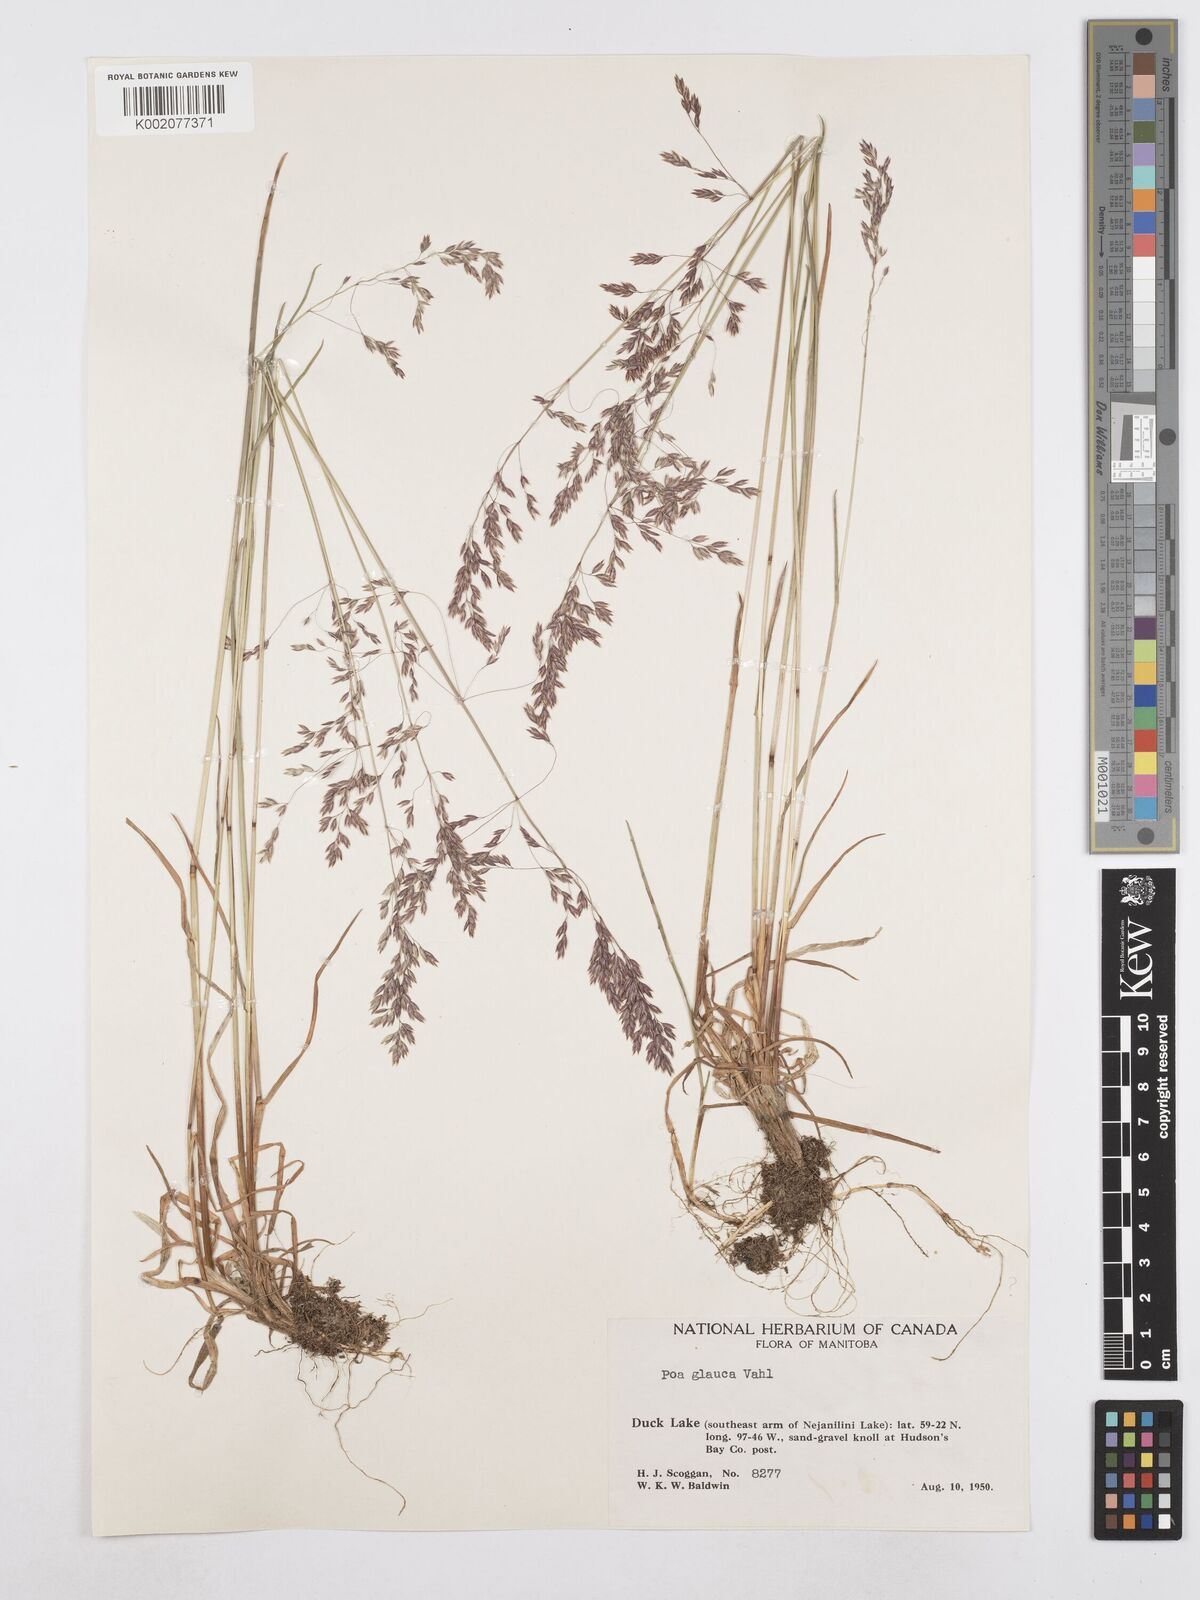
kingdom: Plantae
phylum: Tracheophyta
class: Liliopsida
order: Poales
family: Poaceae
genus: Poa
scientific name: Poa glauca
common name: Glaucous bluegrass
